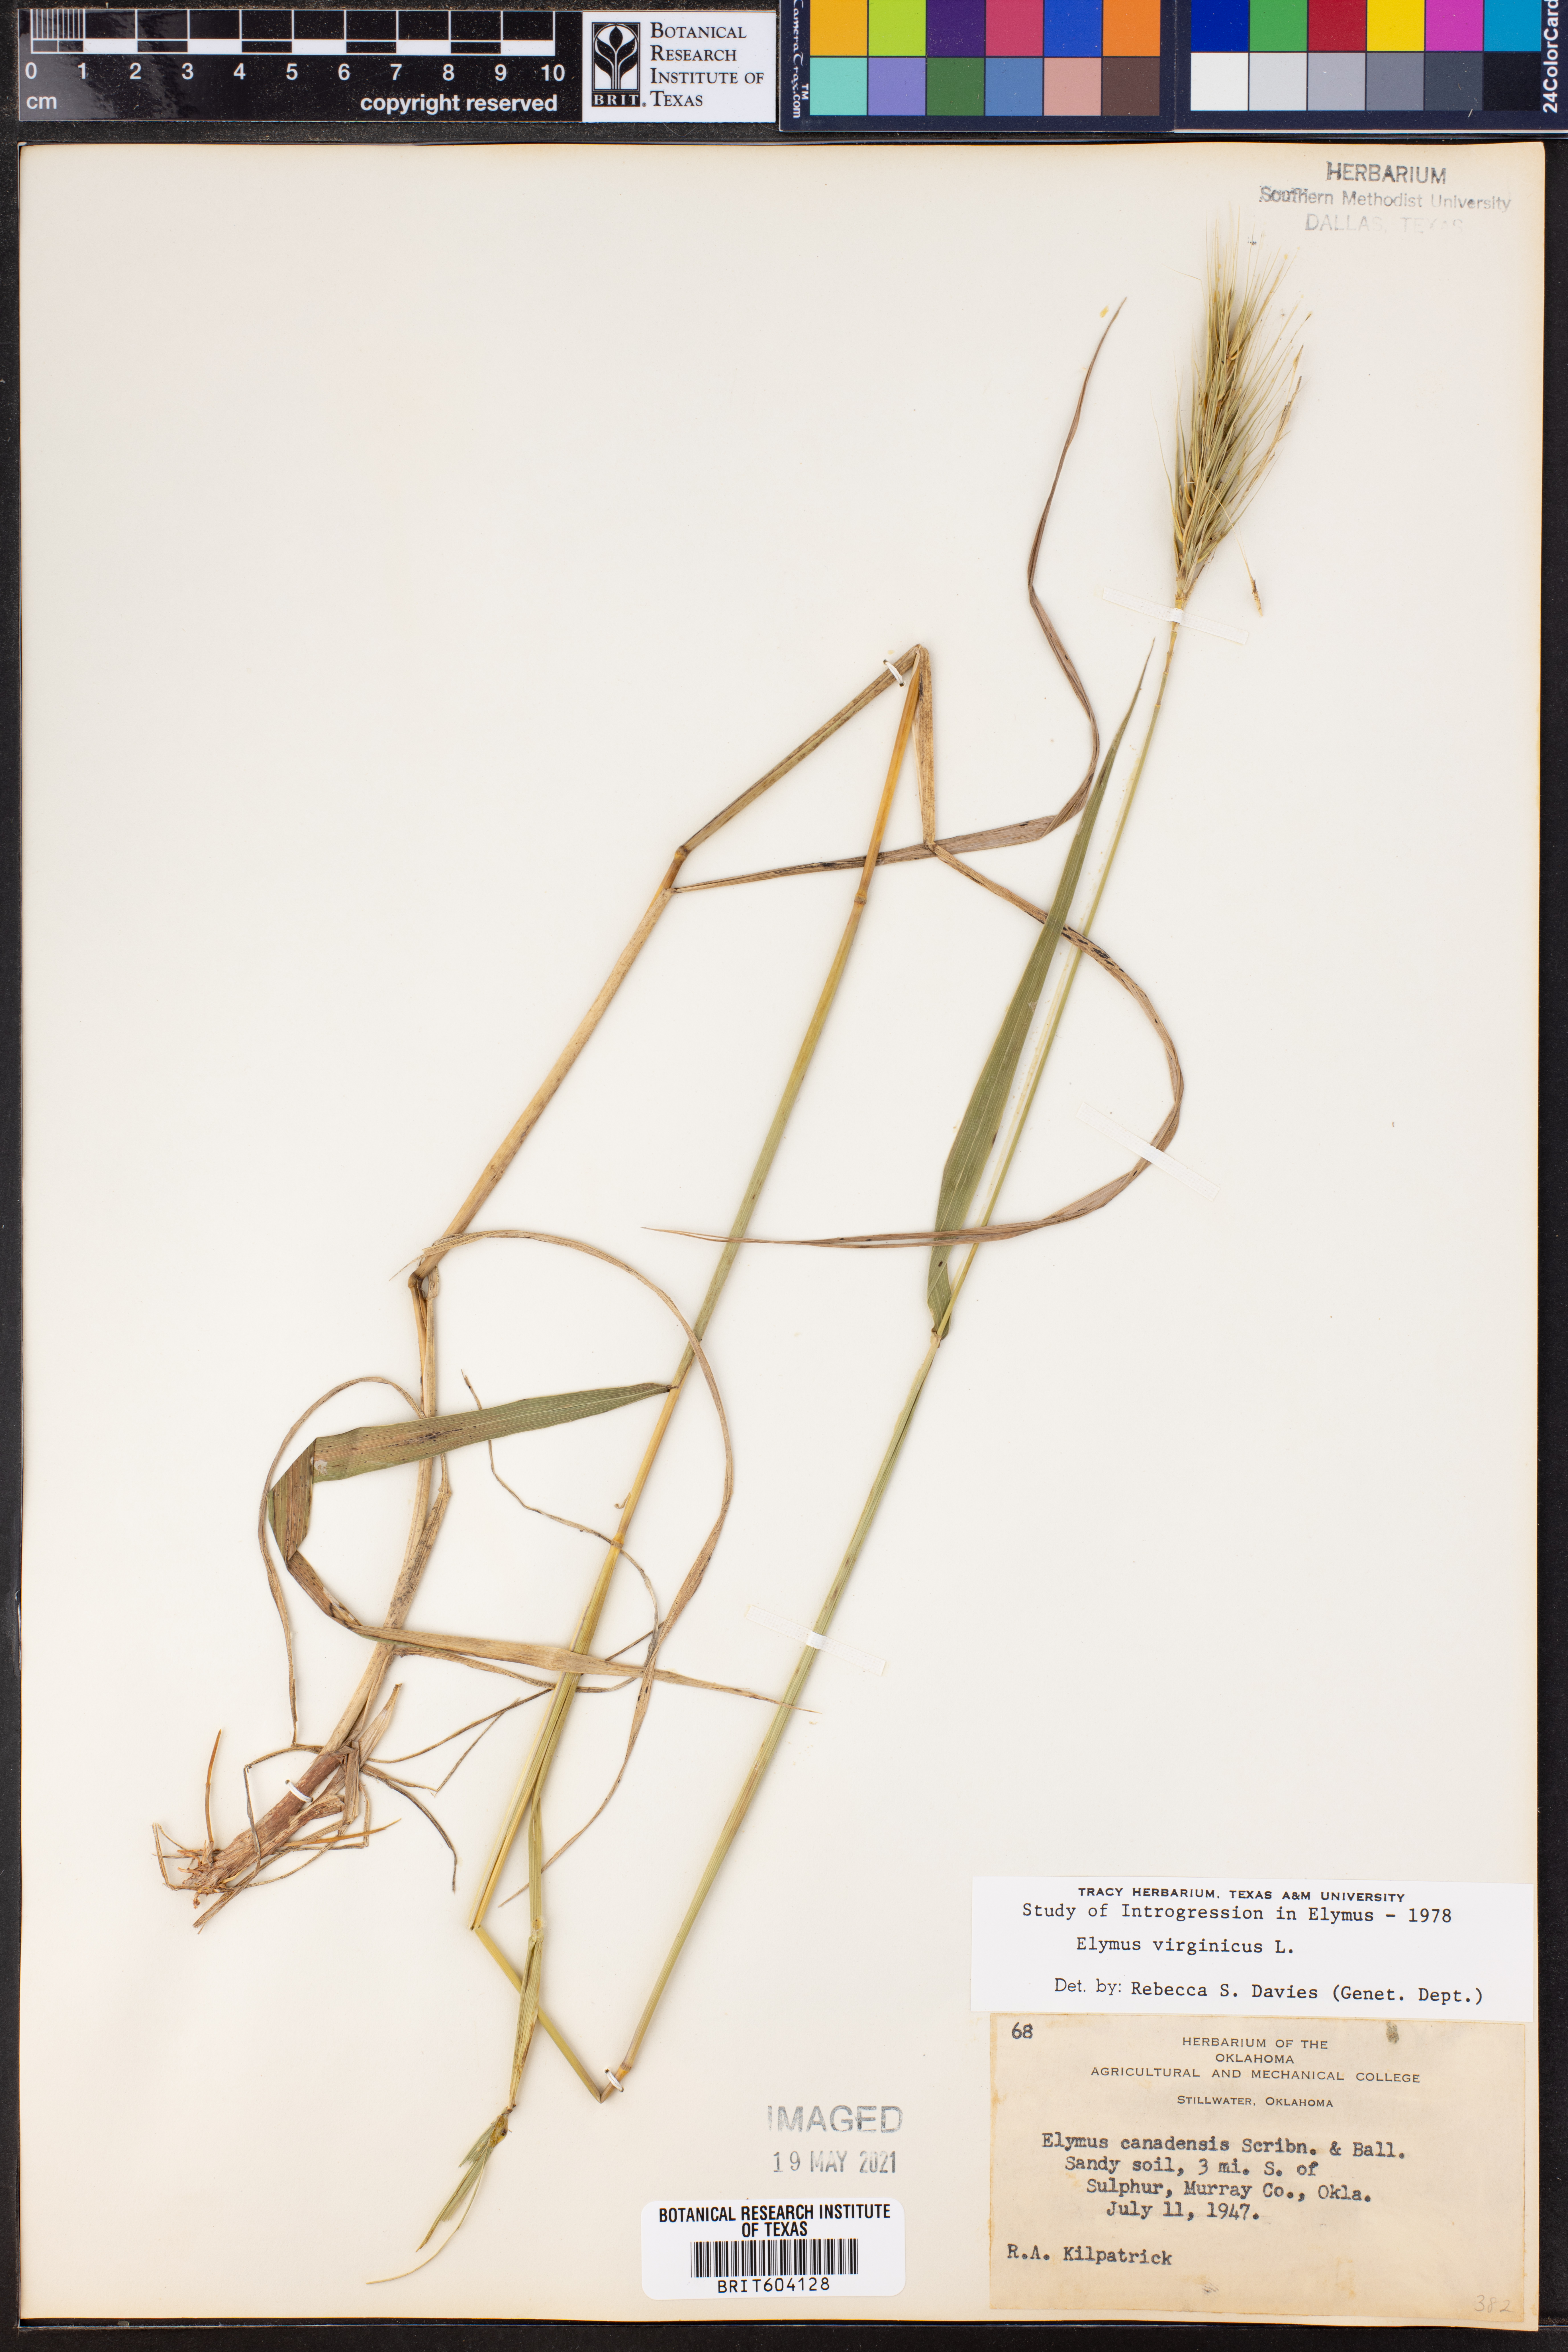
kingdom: Plantae
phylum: Tracheophyta
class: Liliopsida
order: Poales
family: Poaceae
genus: Elymus
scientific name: Elymus virginicus
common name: Common eastern wildrye
